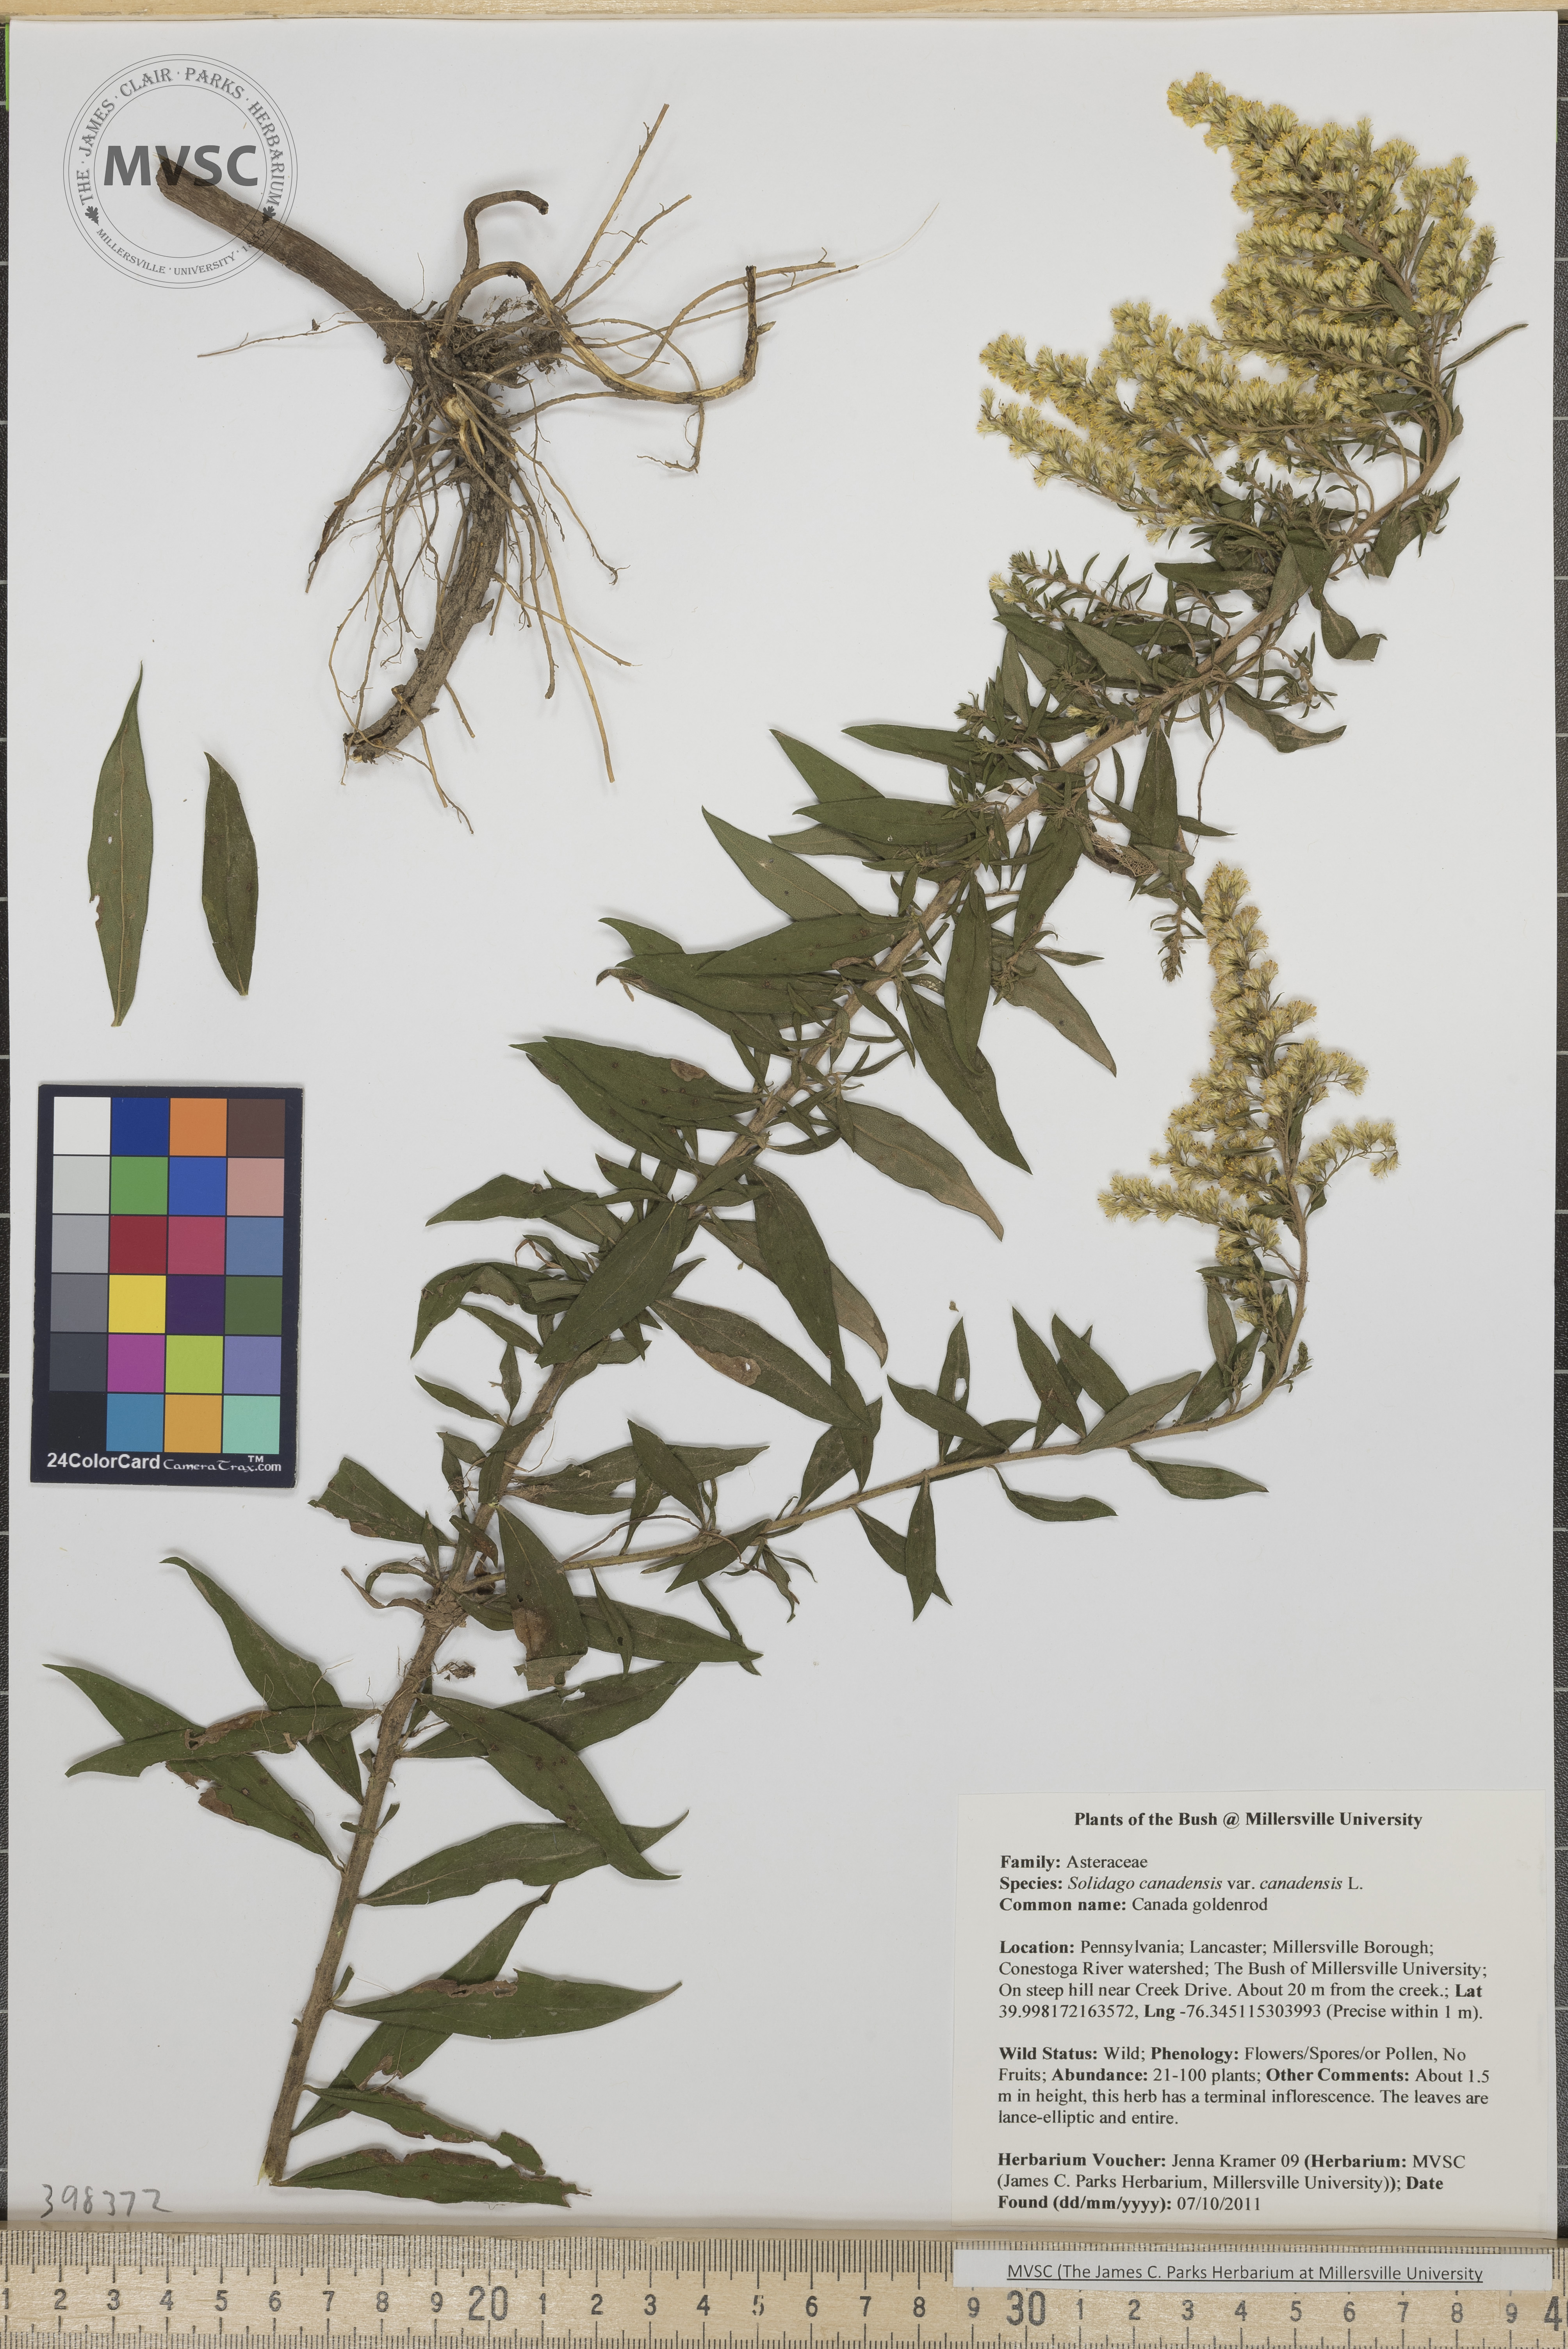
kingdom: Plantae
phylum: Tracheophyta
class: Magnoliopsida
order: Asterales
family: Asteraceae
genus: Solidago
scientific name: Solidago altissima
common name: Late goldenrod
